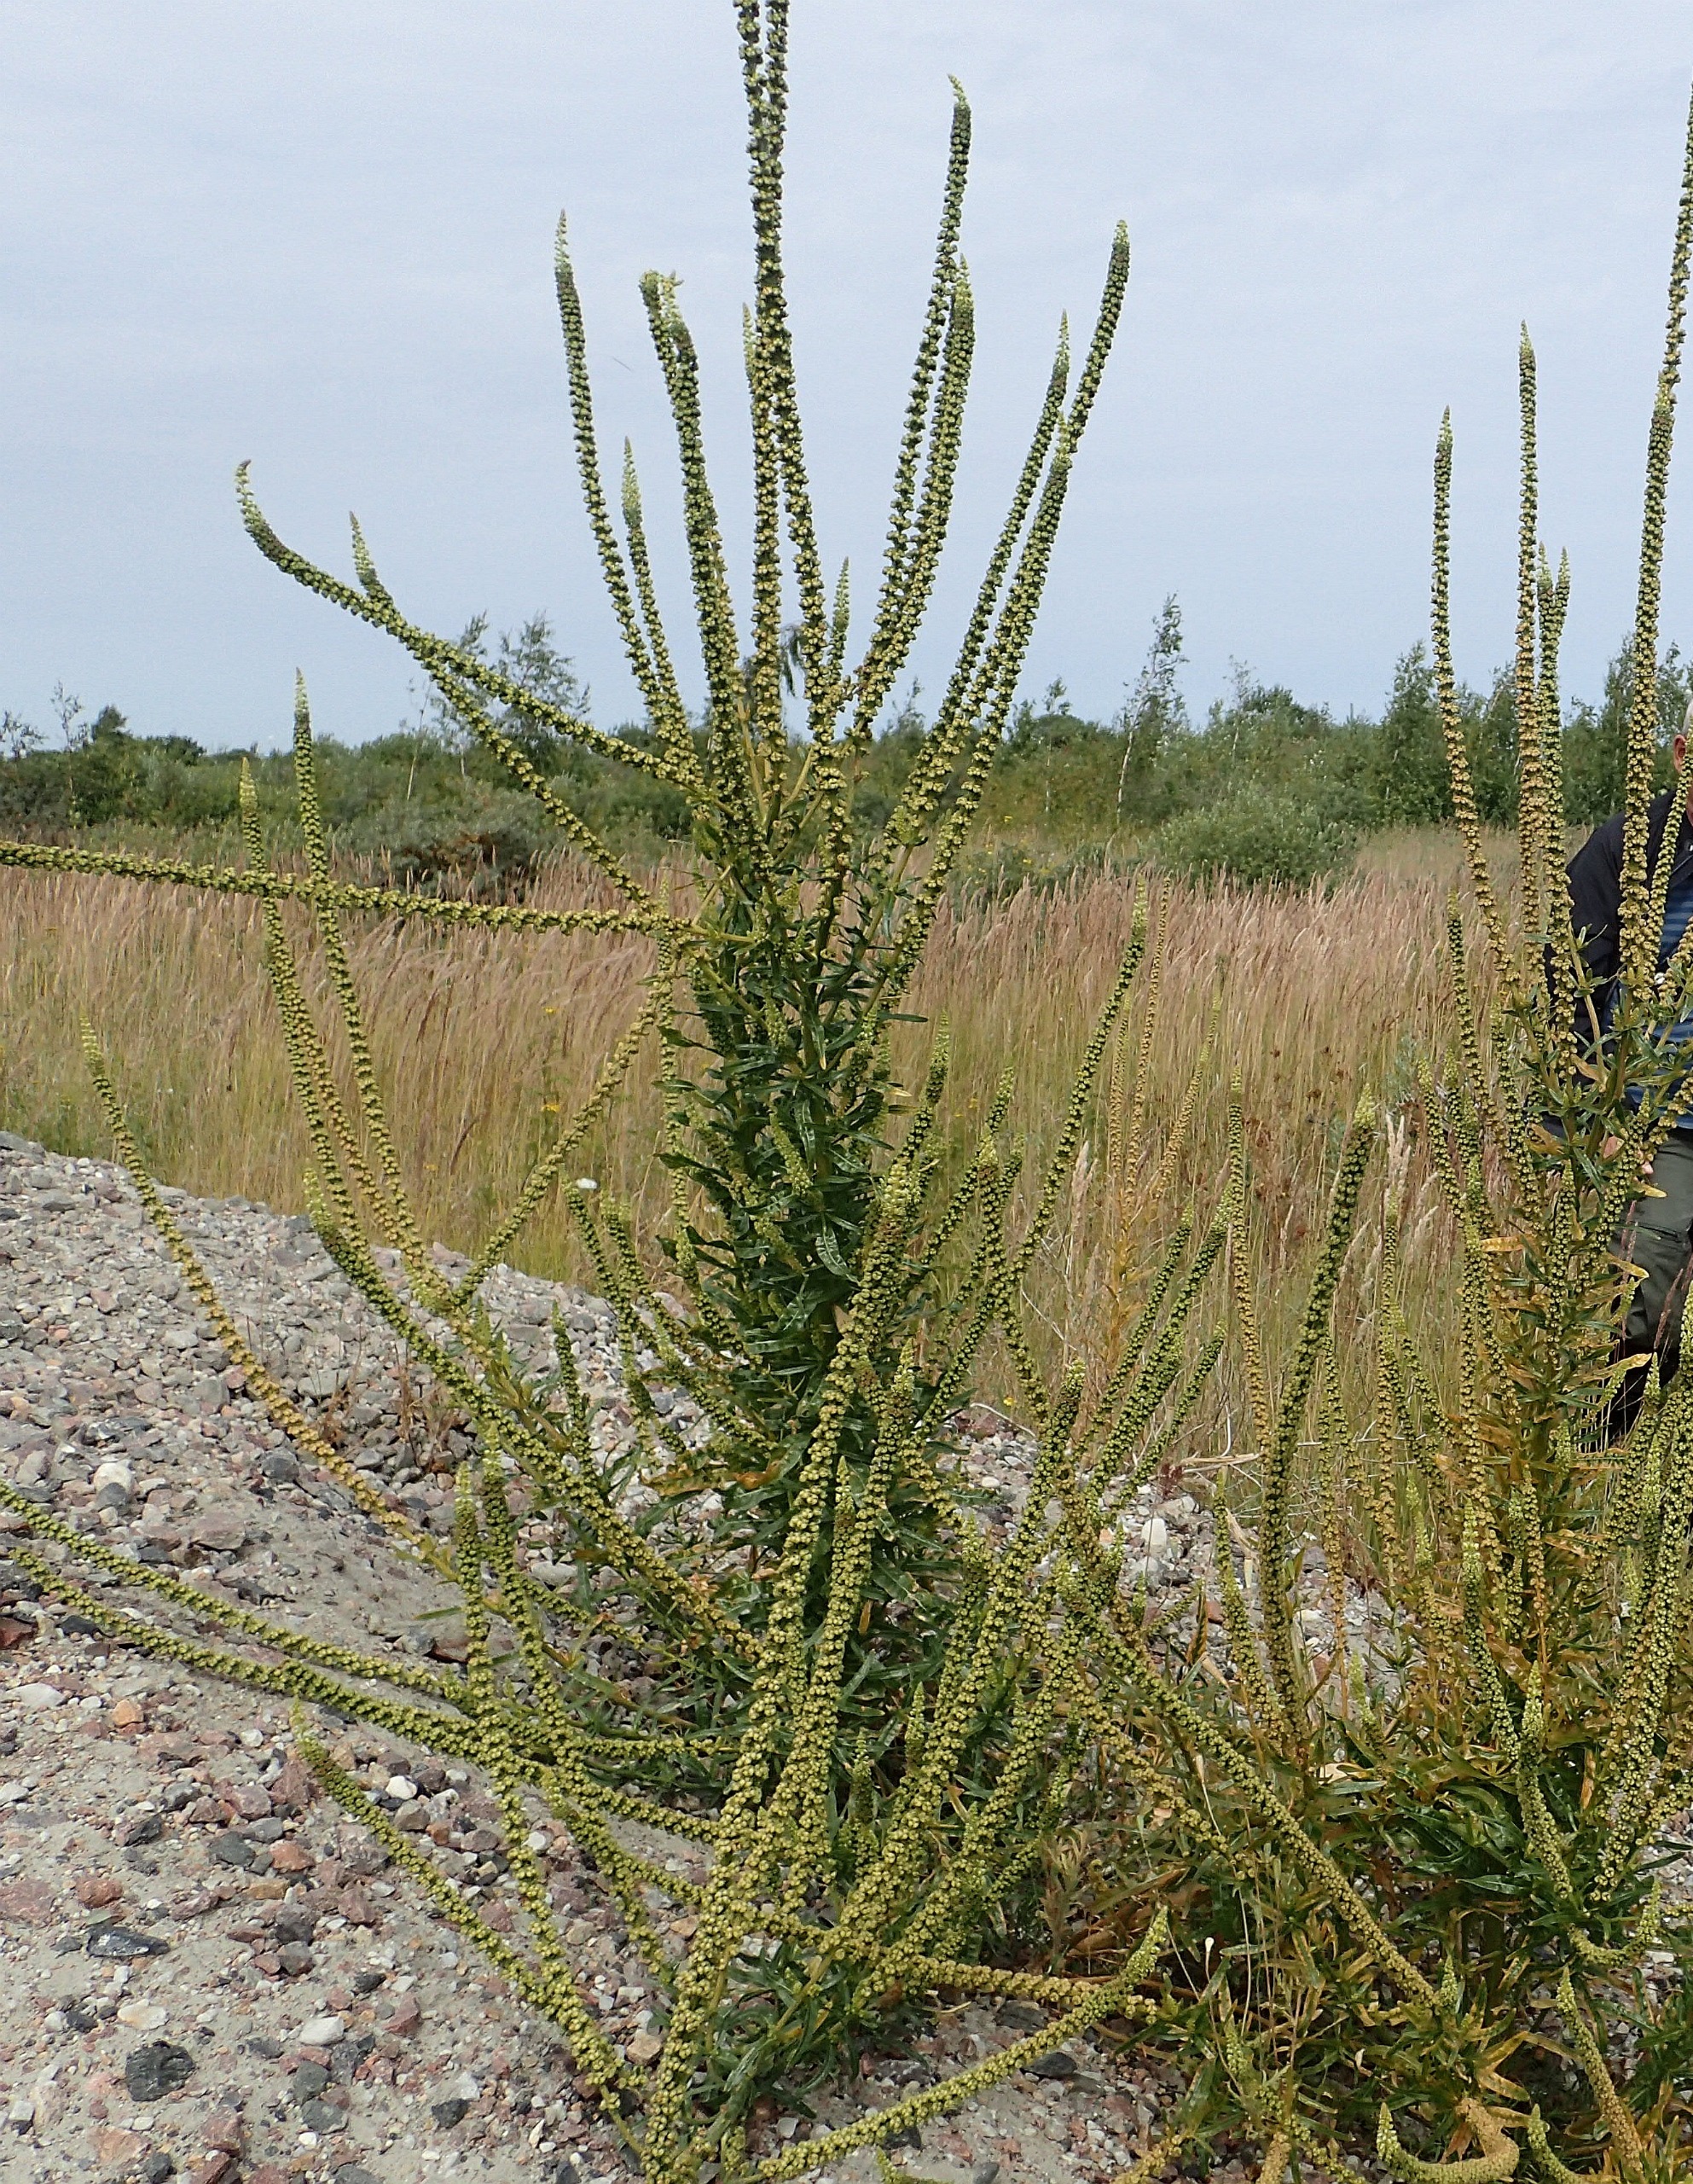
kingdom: Plantae
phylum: Tracheophyta
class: Magnoliopsida
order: Brassicales
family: Resedaceae
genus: Reseda
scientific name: Reseda luteola
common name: Farve-reseda
